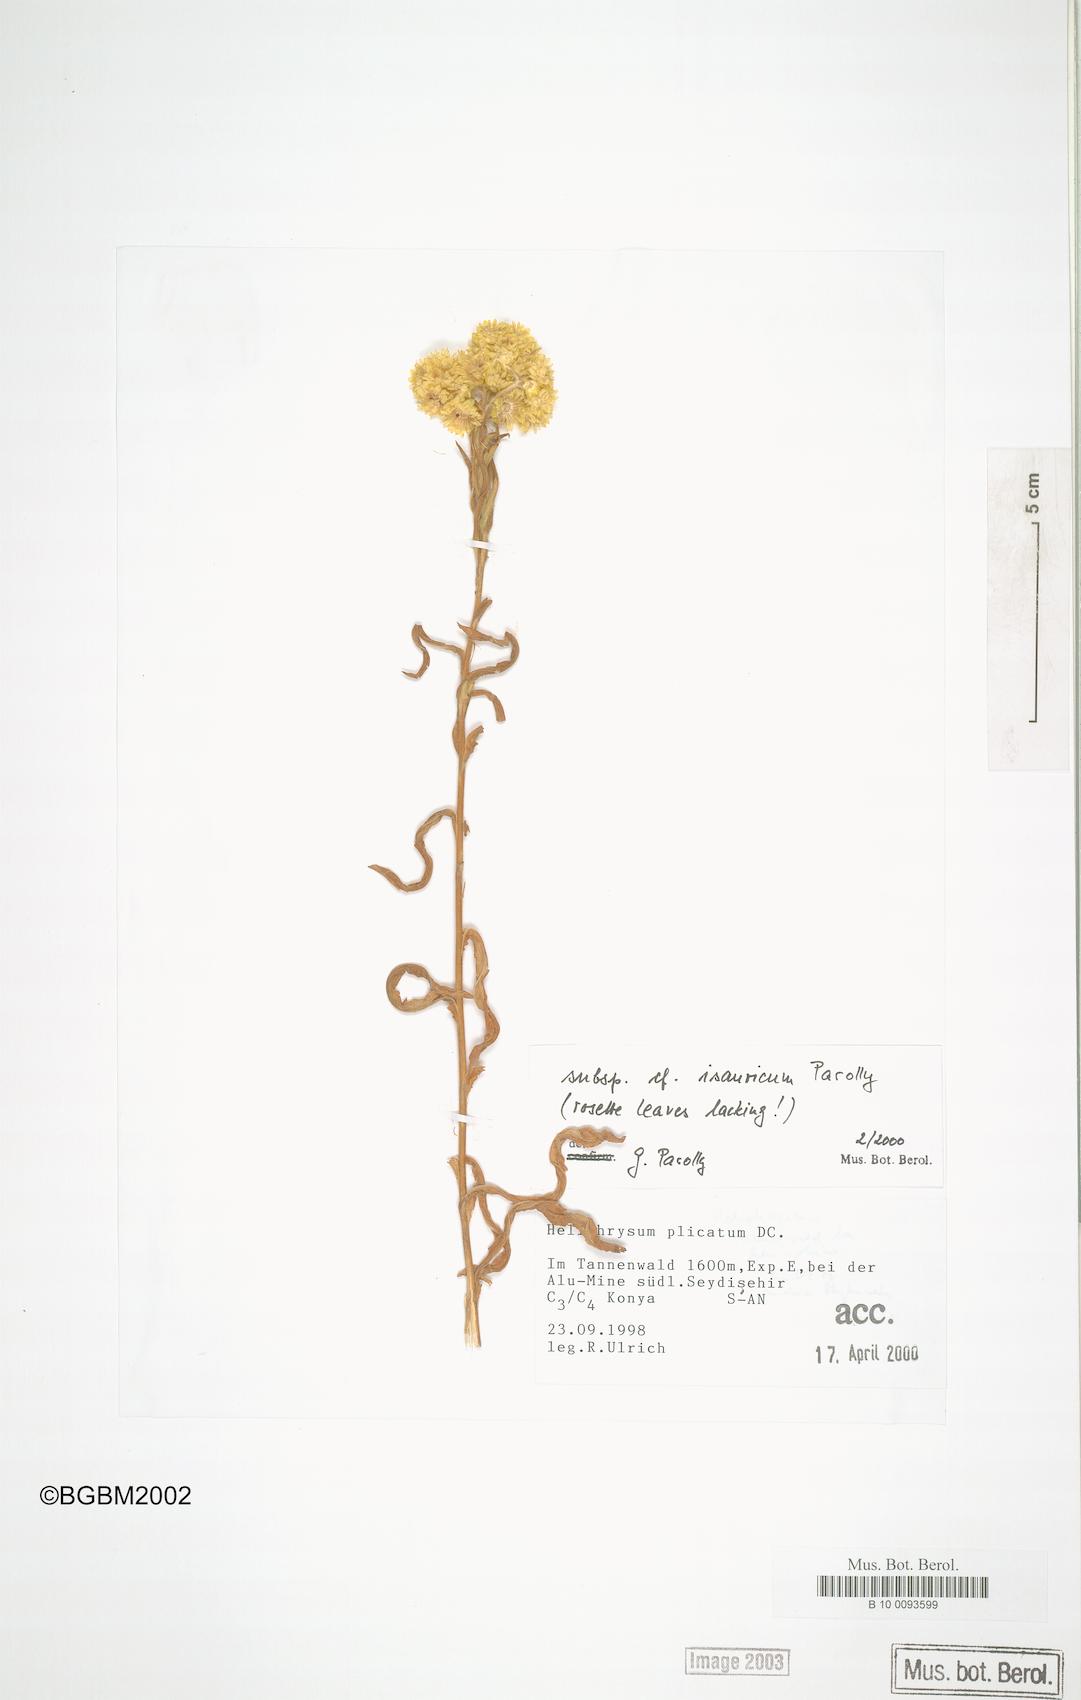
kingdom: Plantae
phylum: Tracheophyta
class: Magnoliopsida
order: Asterales
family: Asteraceae
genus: Helichrysum
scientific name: Helichrysum plicatum
